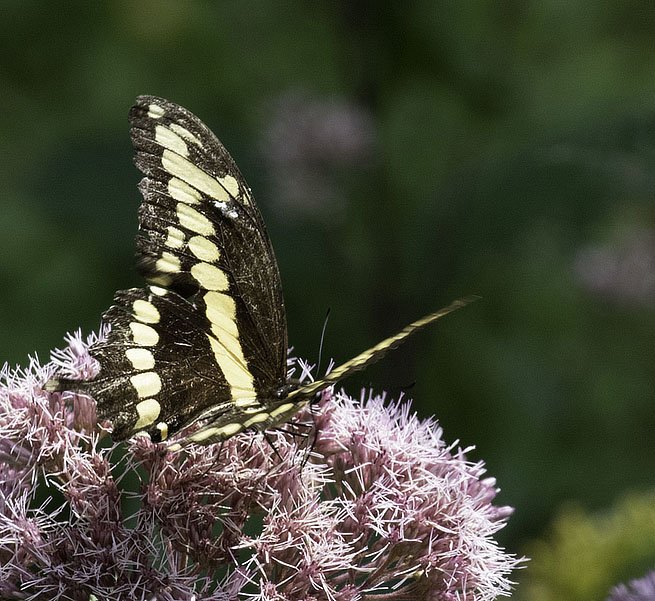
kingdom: Animalia
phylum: Arthropoda
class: Insecta
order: Lepidoptera
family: Papilionidae
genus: Papilio
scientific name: Papilio cresphontes
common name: Eastern Giant Swallowtail
